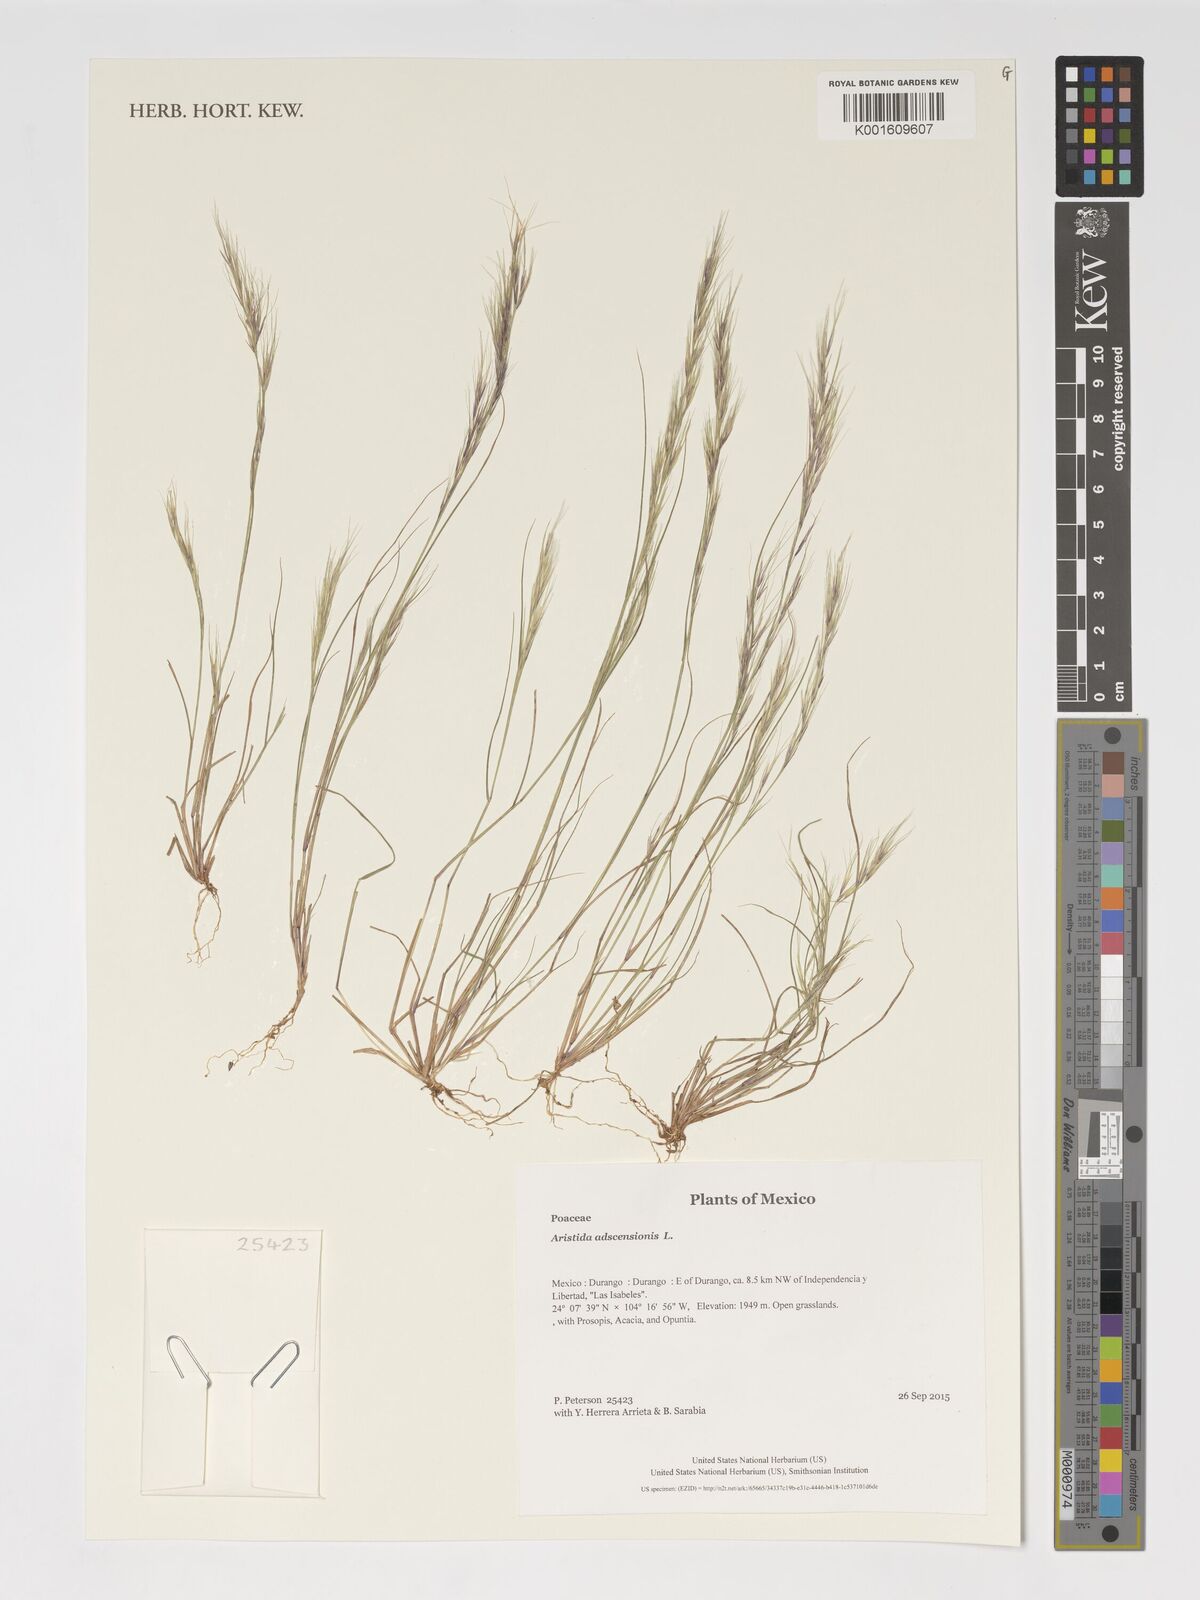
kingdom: Plantae
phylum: Tracheophyta
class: Liliopsida
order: Poales
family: Poaceae
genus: Aristida
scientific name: Aristida adscensionis
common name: Sixweeks threeawn
